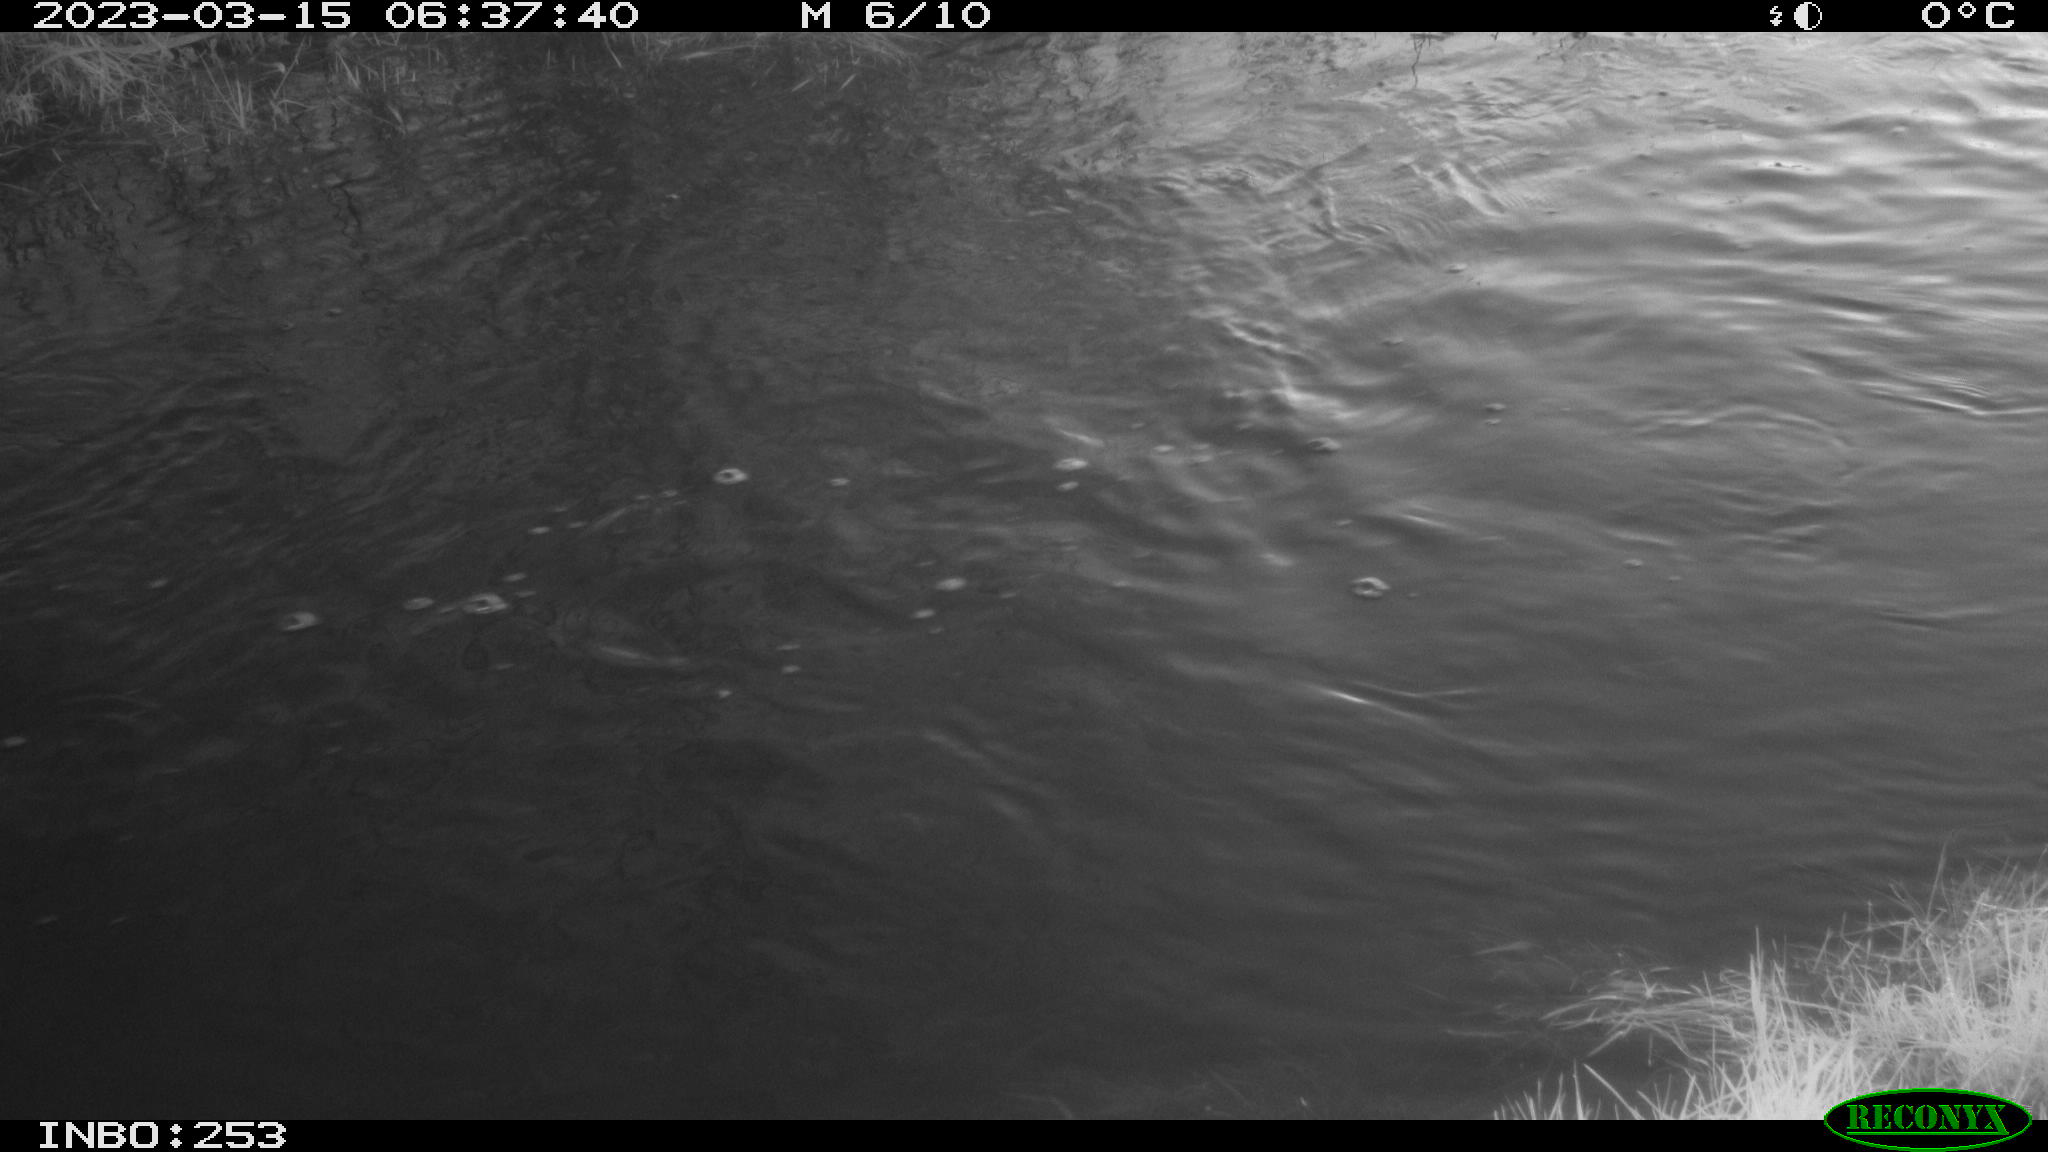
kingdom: Animalia
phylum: Chordata
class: Aves
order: Anseriformes
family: Anatidae
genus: Anas
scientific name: Anas platyrhynchos
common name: Mallard
